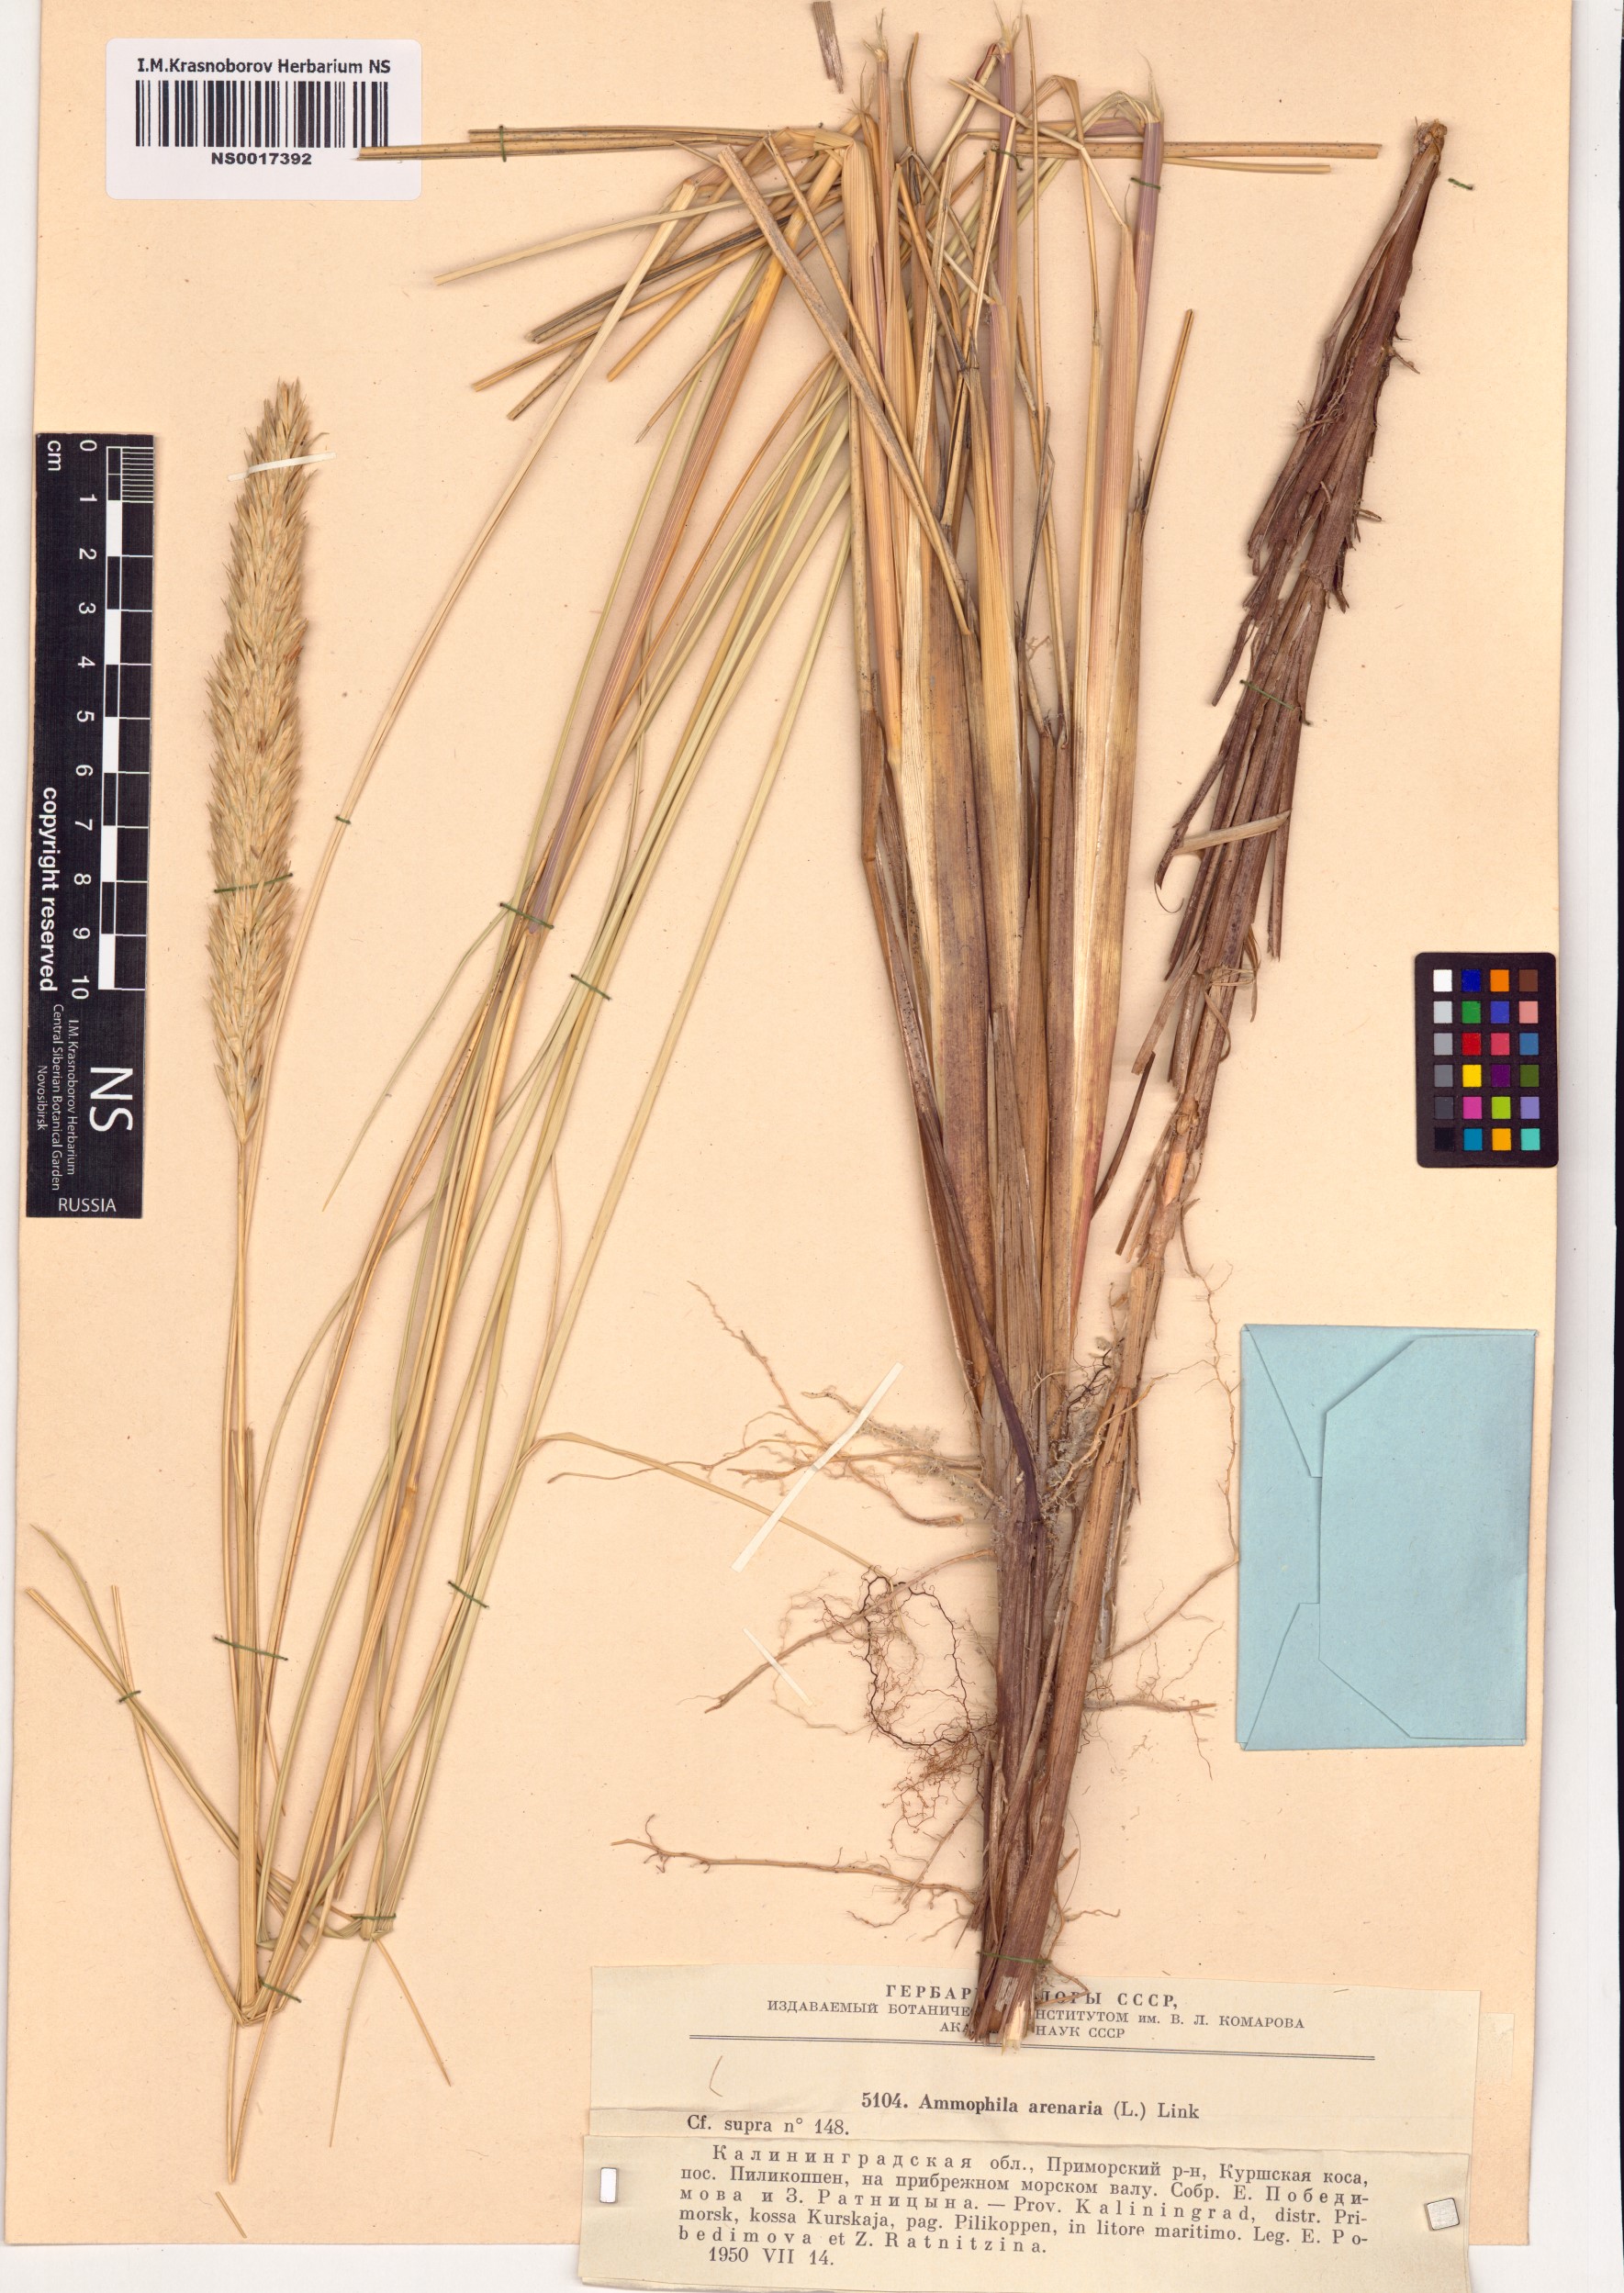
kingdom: Plantae
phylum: Tracheophyta
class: Liliopsida
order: Poales
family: Poaceae
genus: Calamagrostis
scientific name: Calamagrostis arenaria
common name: European beachgrass
